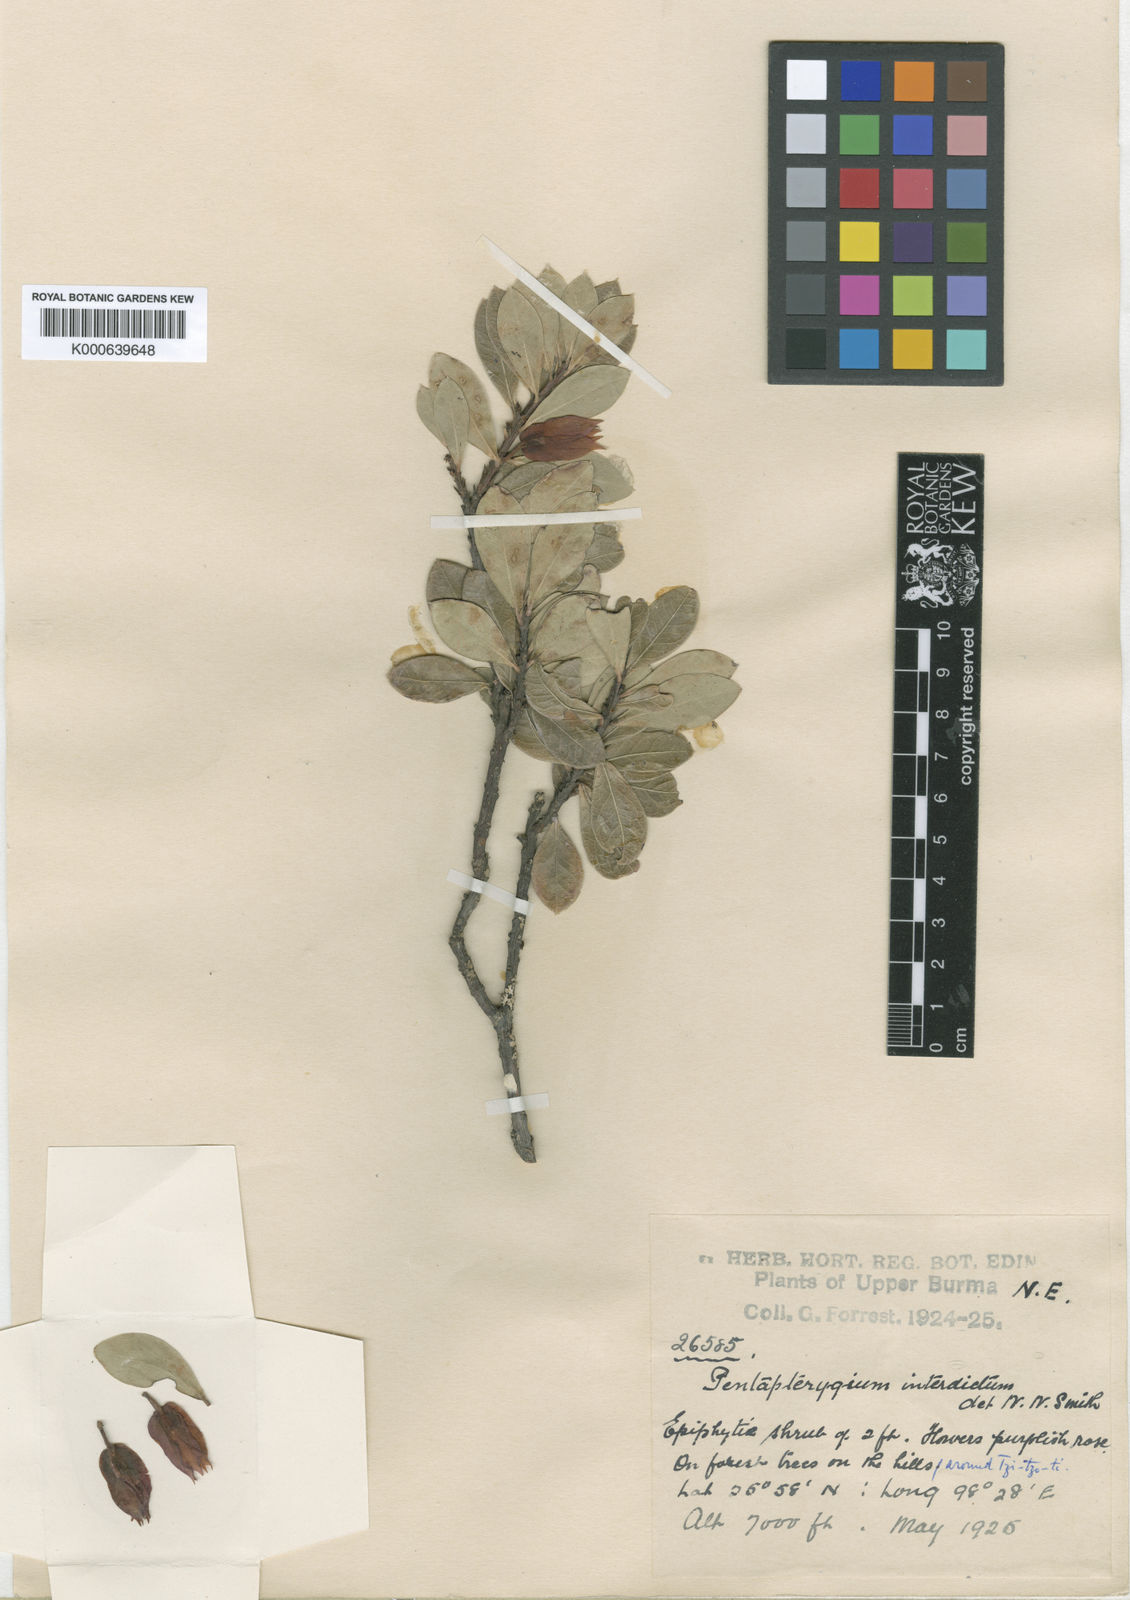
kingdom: Plantae
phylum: Tracheophyta
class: Magnoliopsida
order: Ericales
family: Ericaceae
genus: Agapetes
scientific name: Agapetes interdicta
